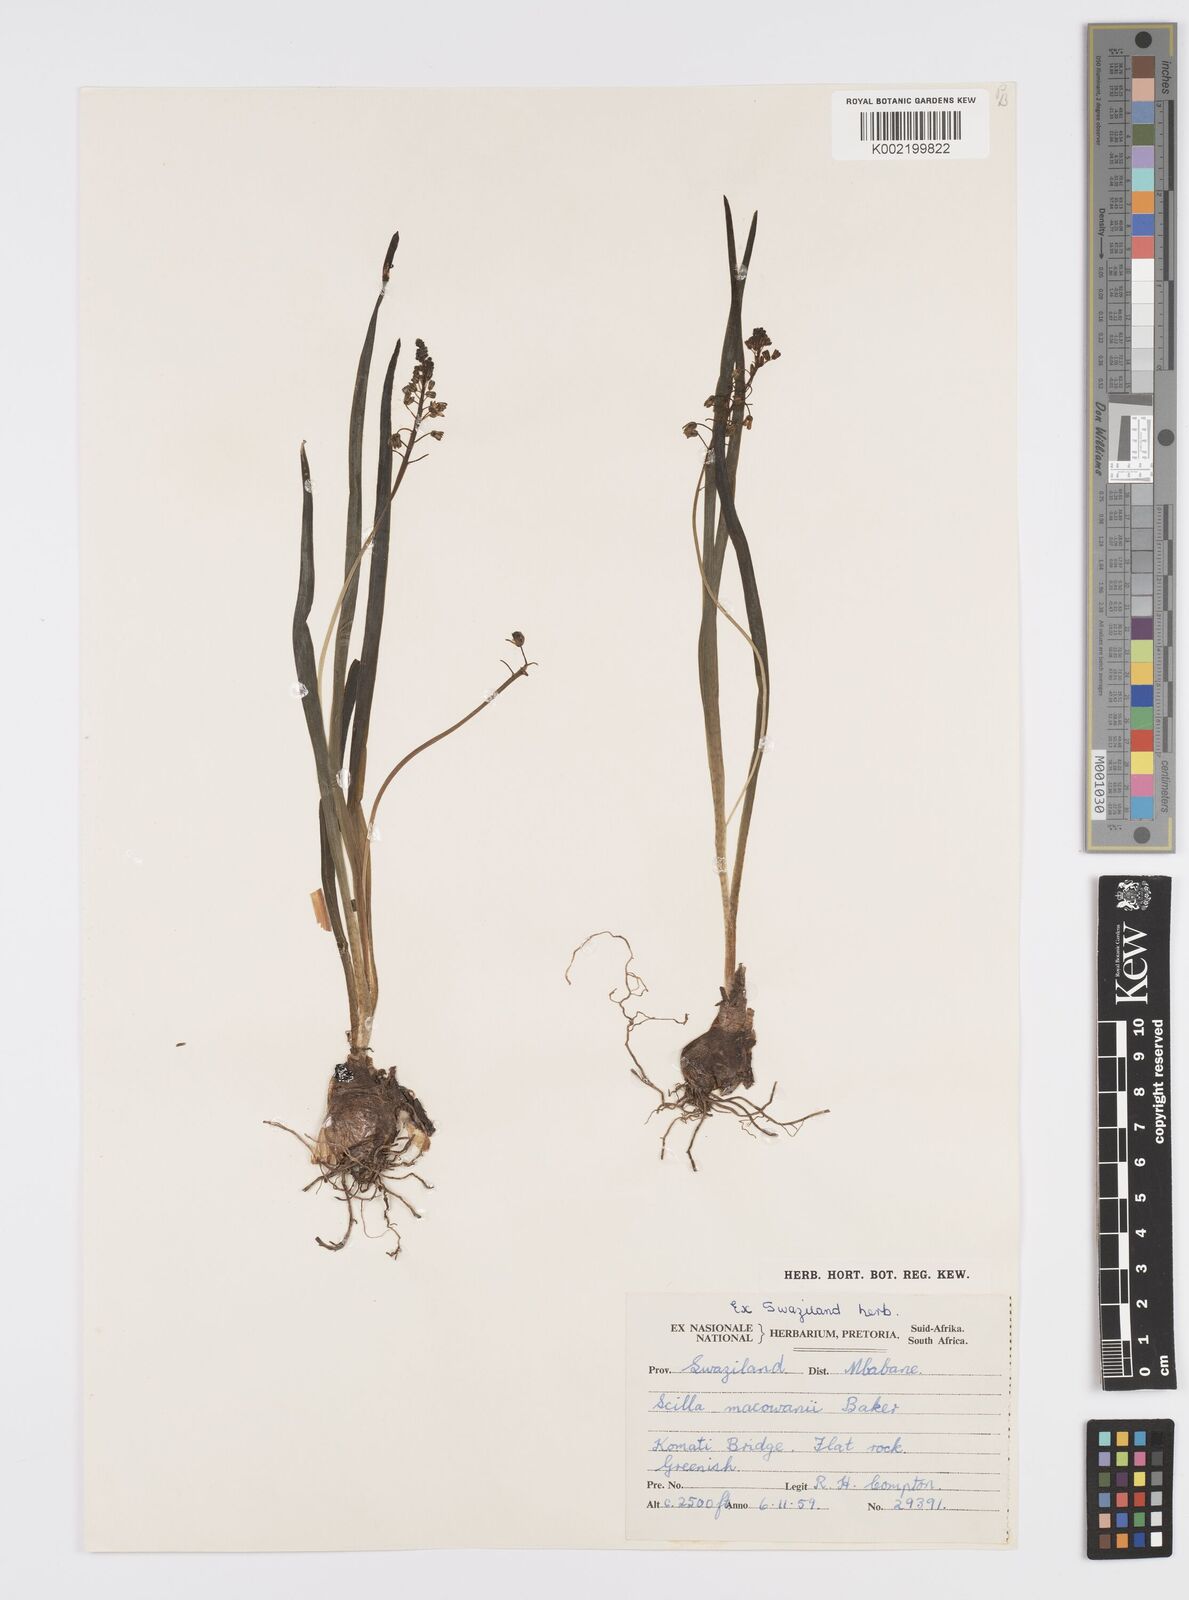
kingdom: Plantae
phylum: Tracheophyta
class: Liliopsida
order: Asparagales
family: Asparagaceae
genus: Ledebouria
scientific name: Ledebouria cooperi
